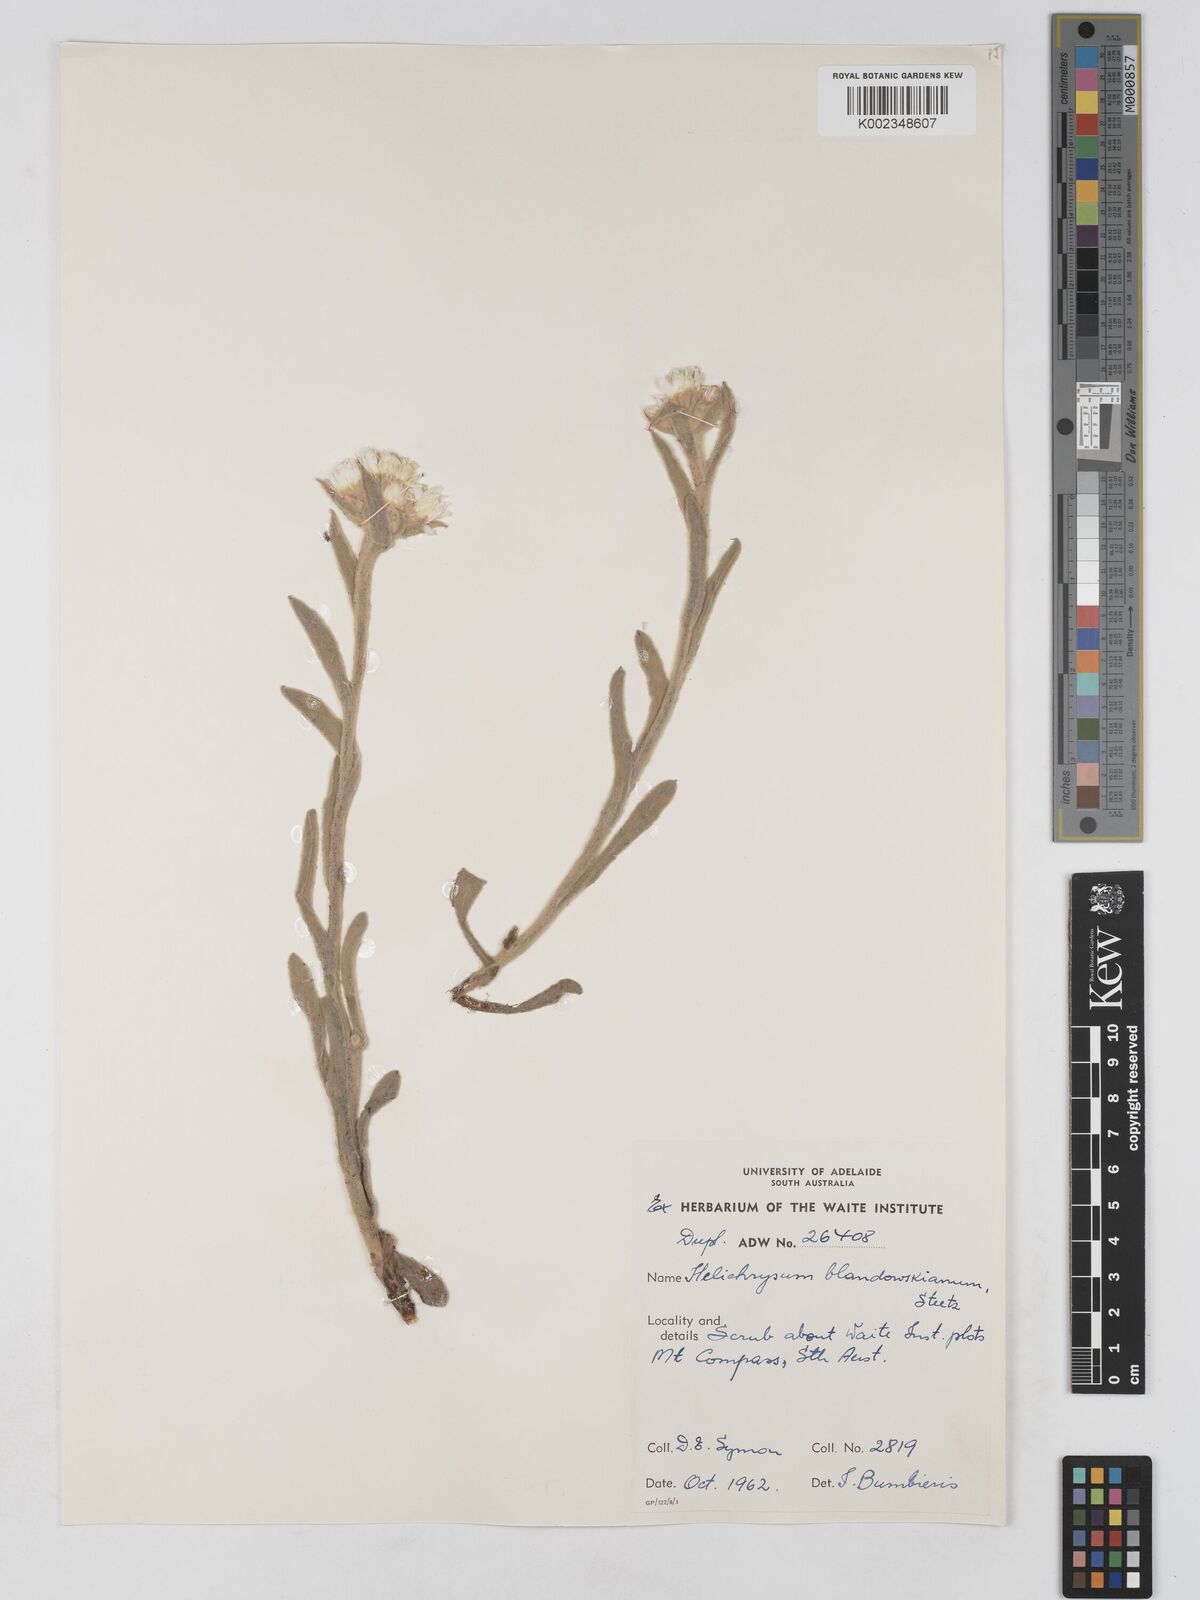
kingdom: Plantae
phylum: Tracheophyta
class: Magnoliopsida
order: Asterales
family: Asteraceae
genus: Argentipallium
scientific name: Argentipallium blandowskianum
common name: Woolly everlasting
